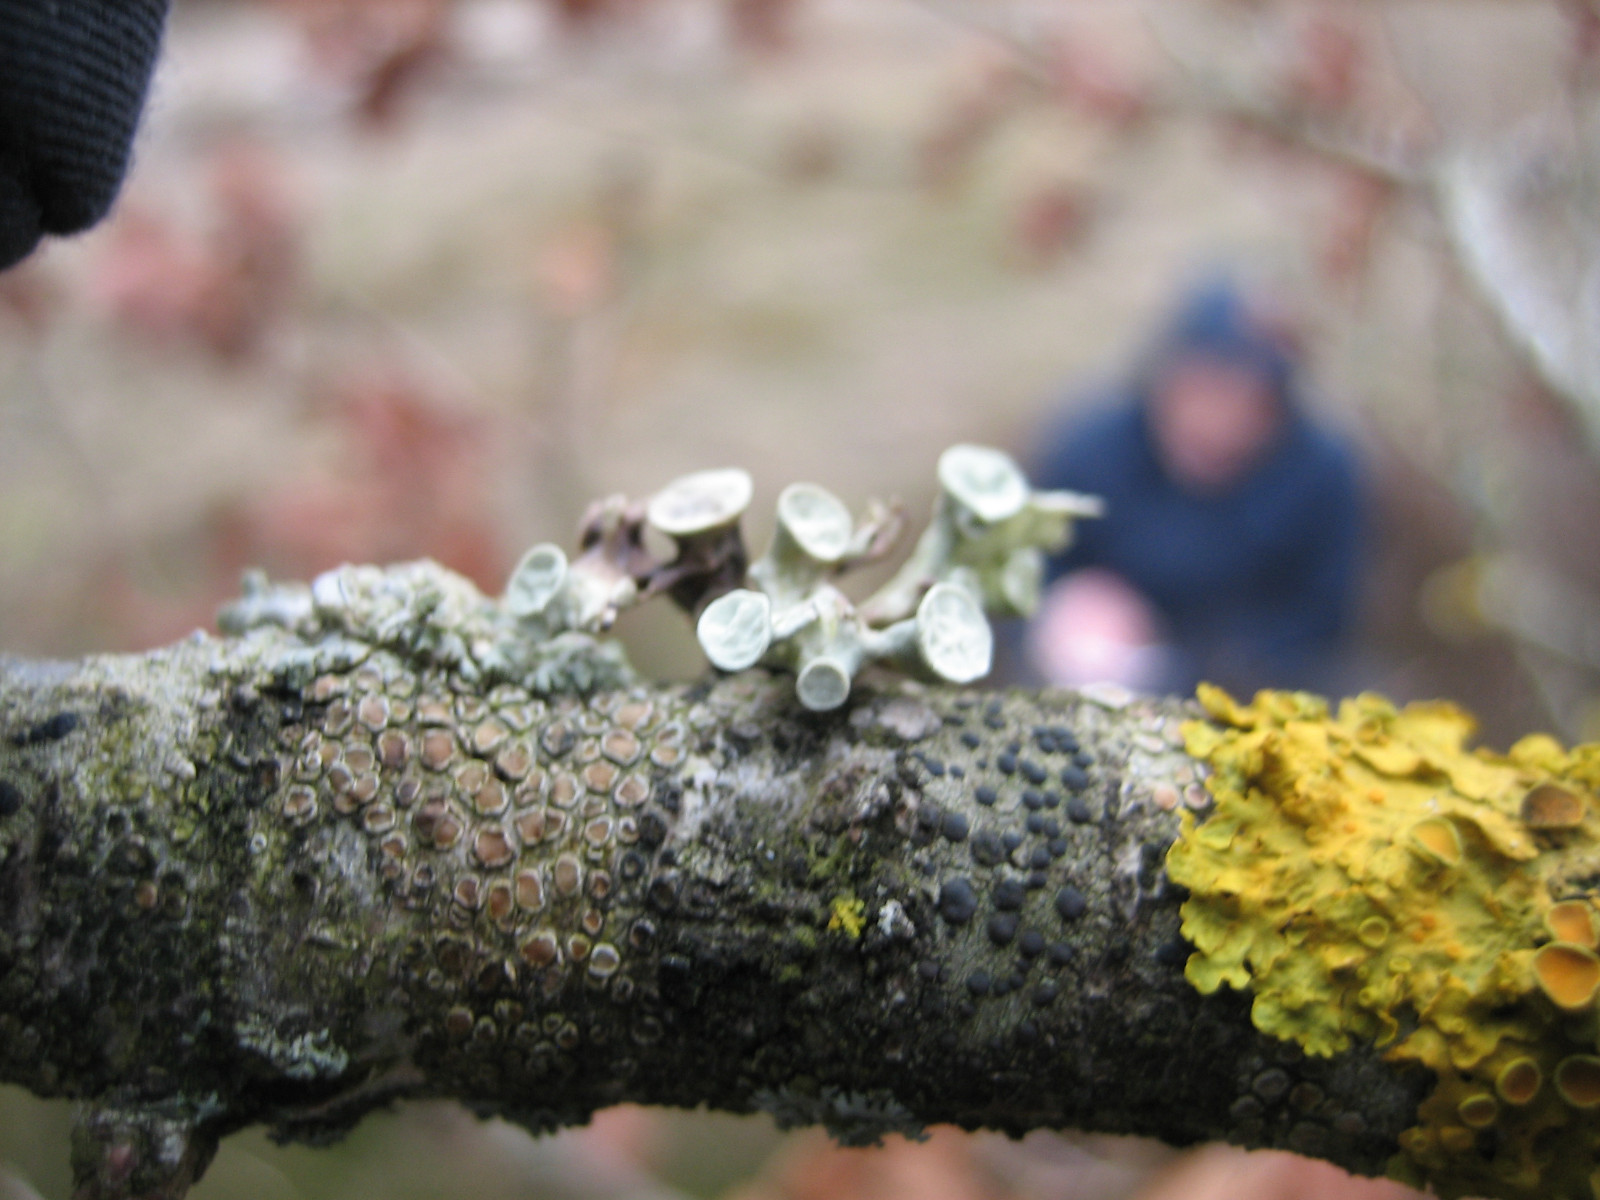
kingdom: Fungi
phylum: Ascomycota
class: Lecanoromycetes
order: Lecanorales
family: Ramalinaceae
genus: Ramalina
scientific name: Ramalina fastigiata
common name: tue-grenlav
